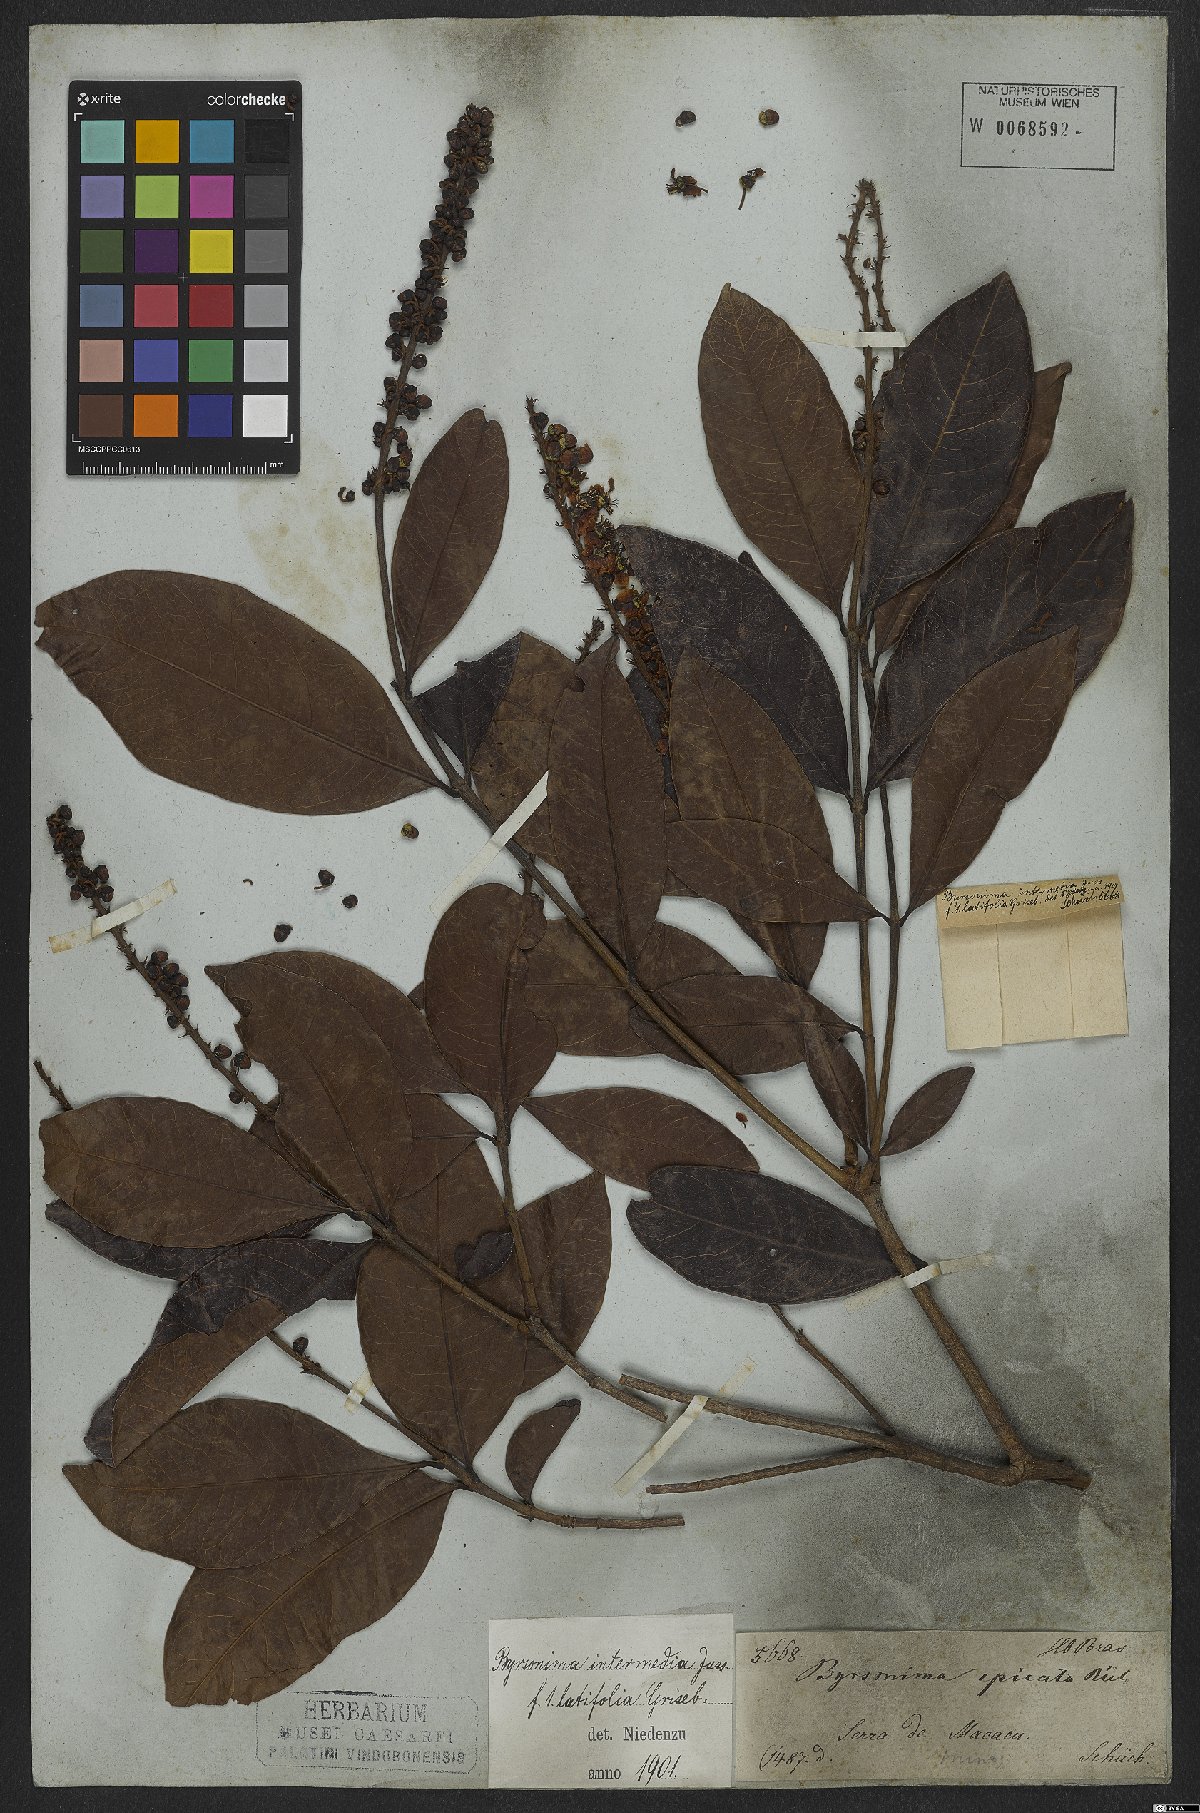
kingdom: Plantae
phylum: Tracheophyta
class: Magnoliopsida
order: Malpighiales
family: Malpighiaceae
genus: Byrsonima
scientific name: Byrsonima intermedia
